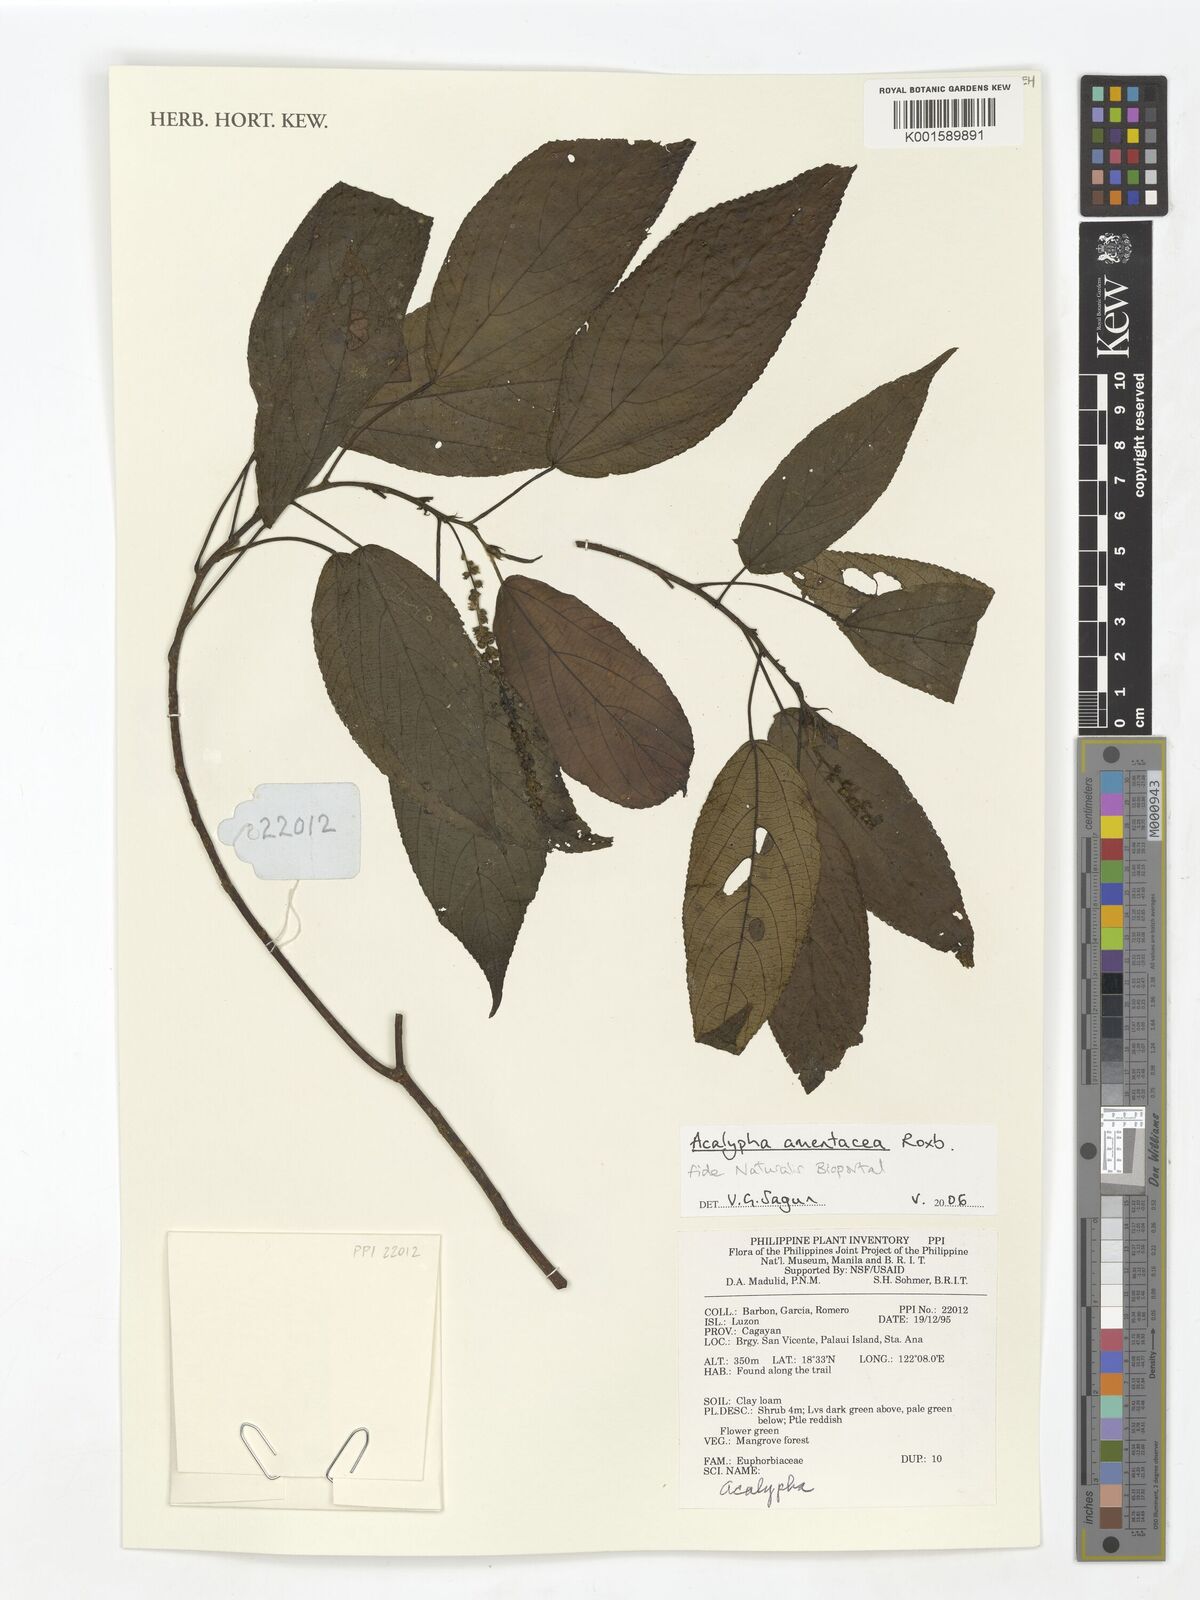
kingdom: Plantae
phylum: Tracheophyta
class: Magnoliopsida
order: Malpighiales
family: Euphorbiaceae
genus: Acalypha
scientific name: Acalypha amentacea
